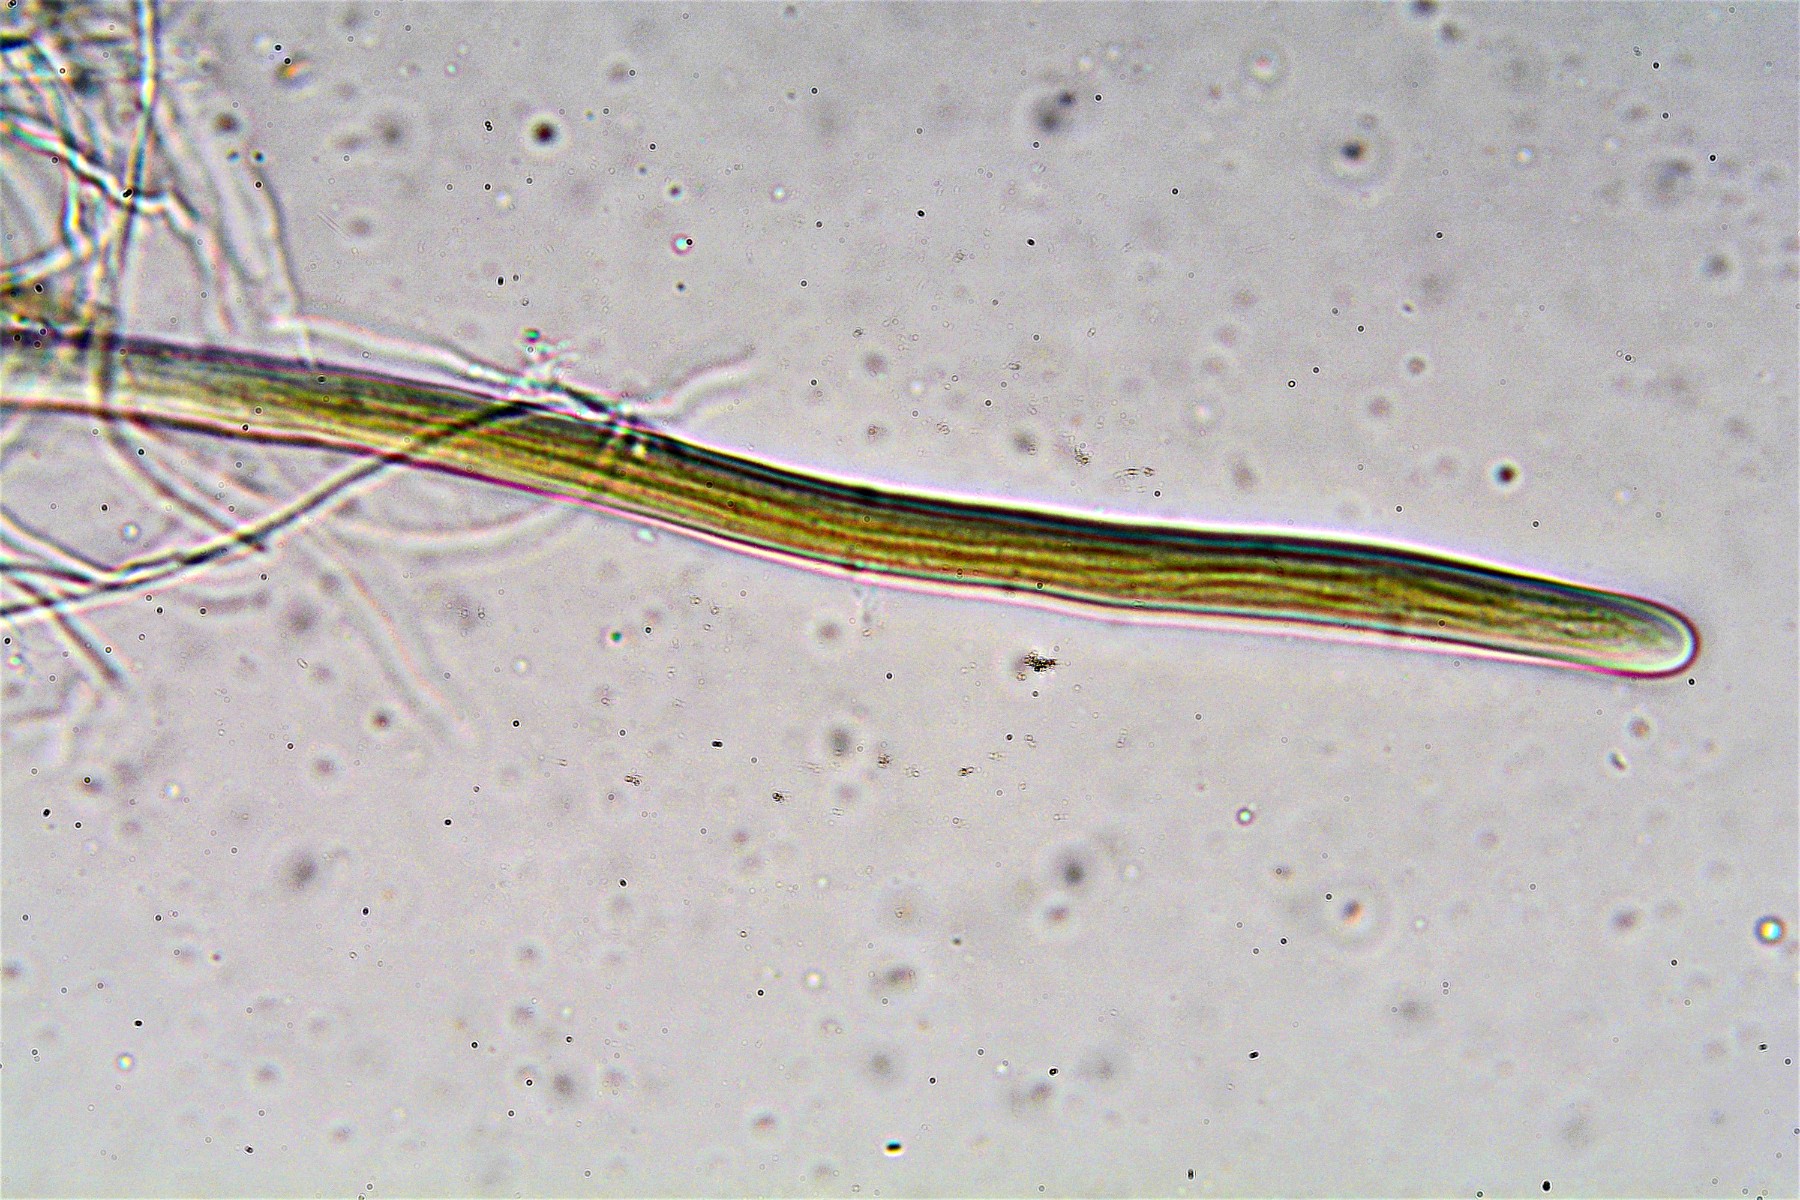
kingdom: Fungi
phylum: Ascomycota
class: Dothideomycetes
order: Mytilinidiales
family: Mytilinidiaceae
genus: Mytilinidion
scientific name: Mytilinidion rhenanum
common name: almindelig kulmusling
